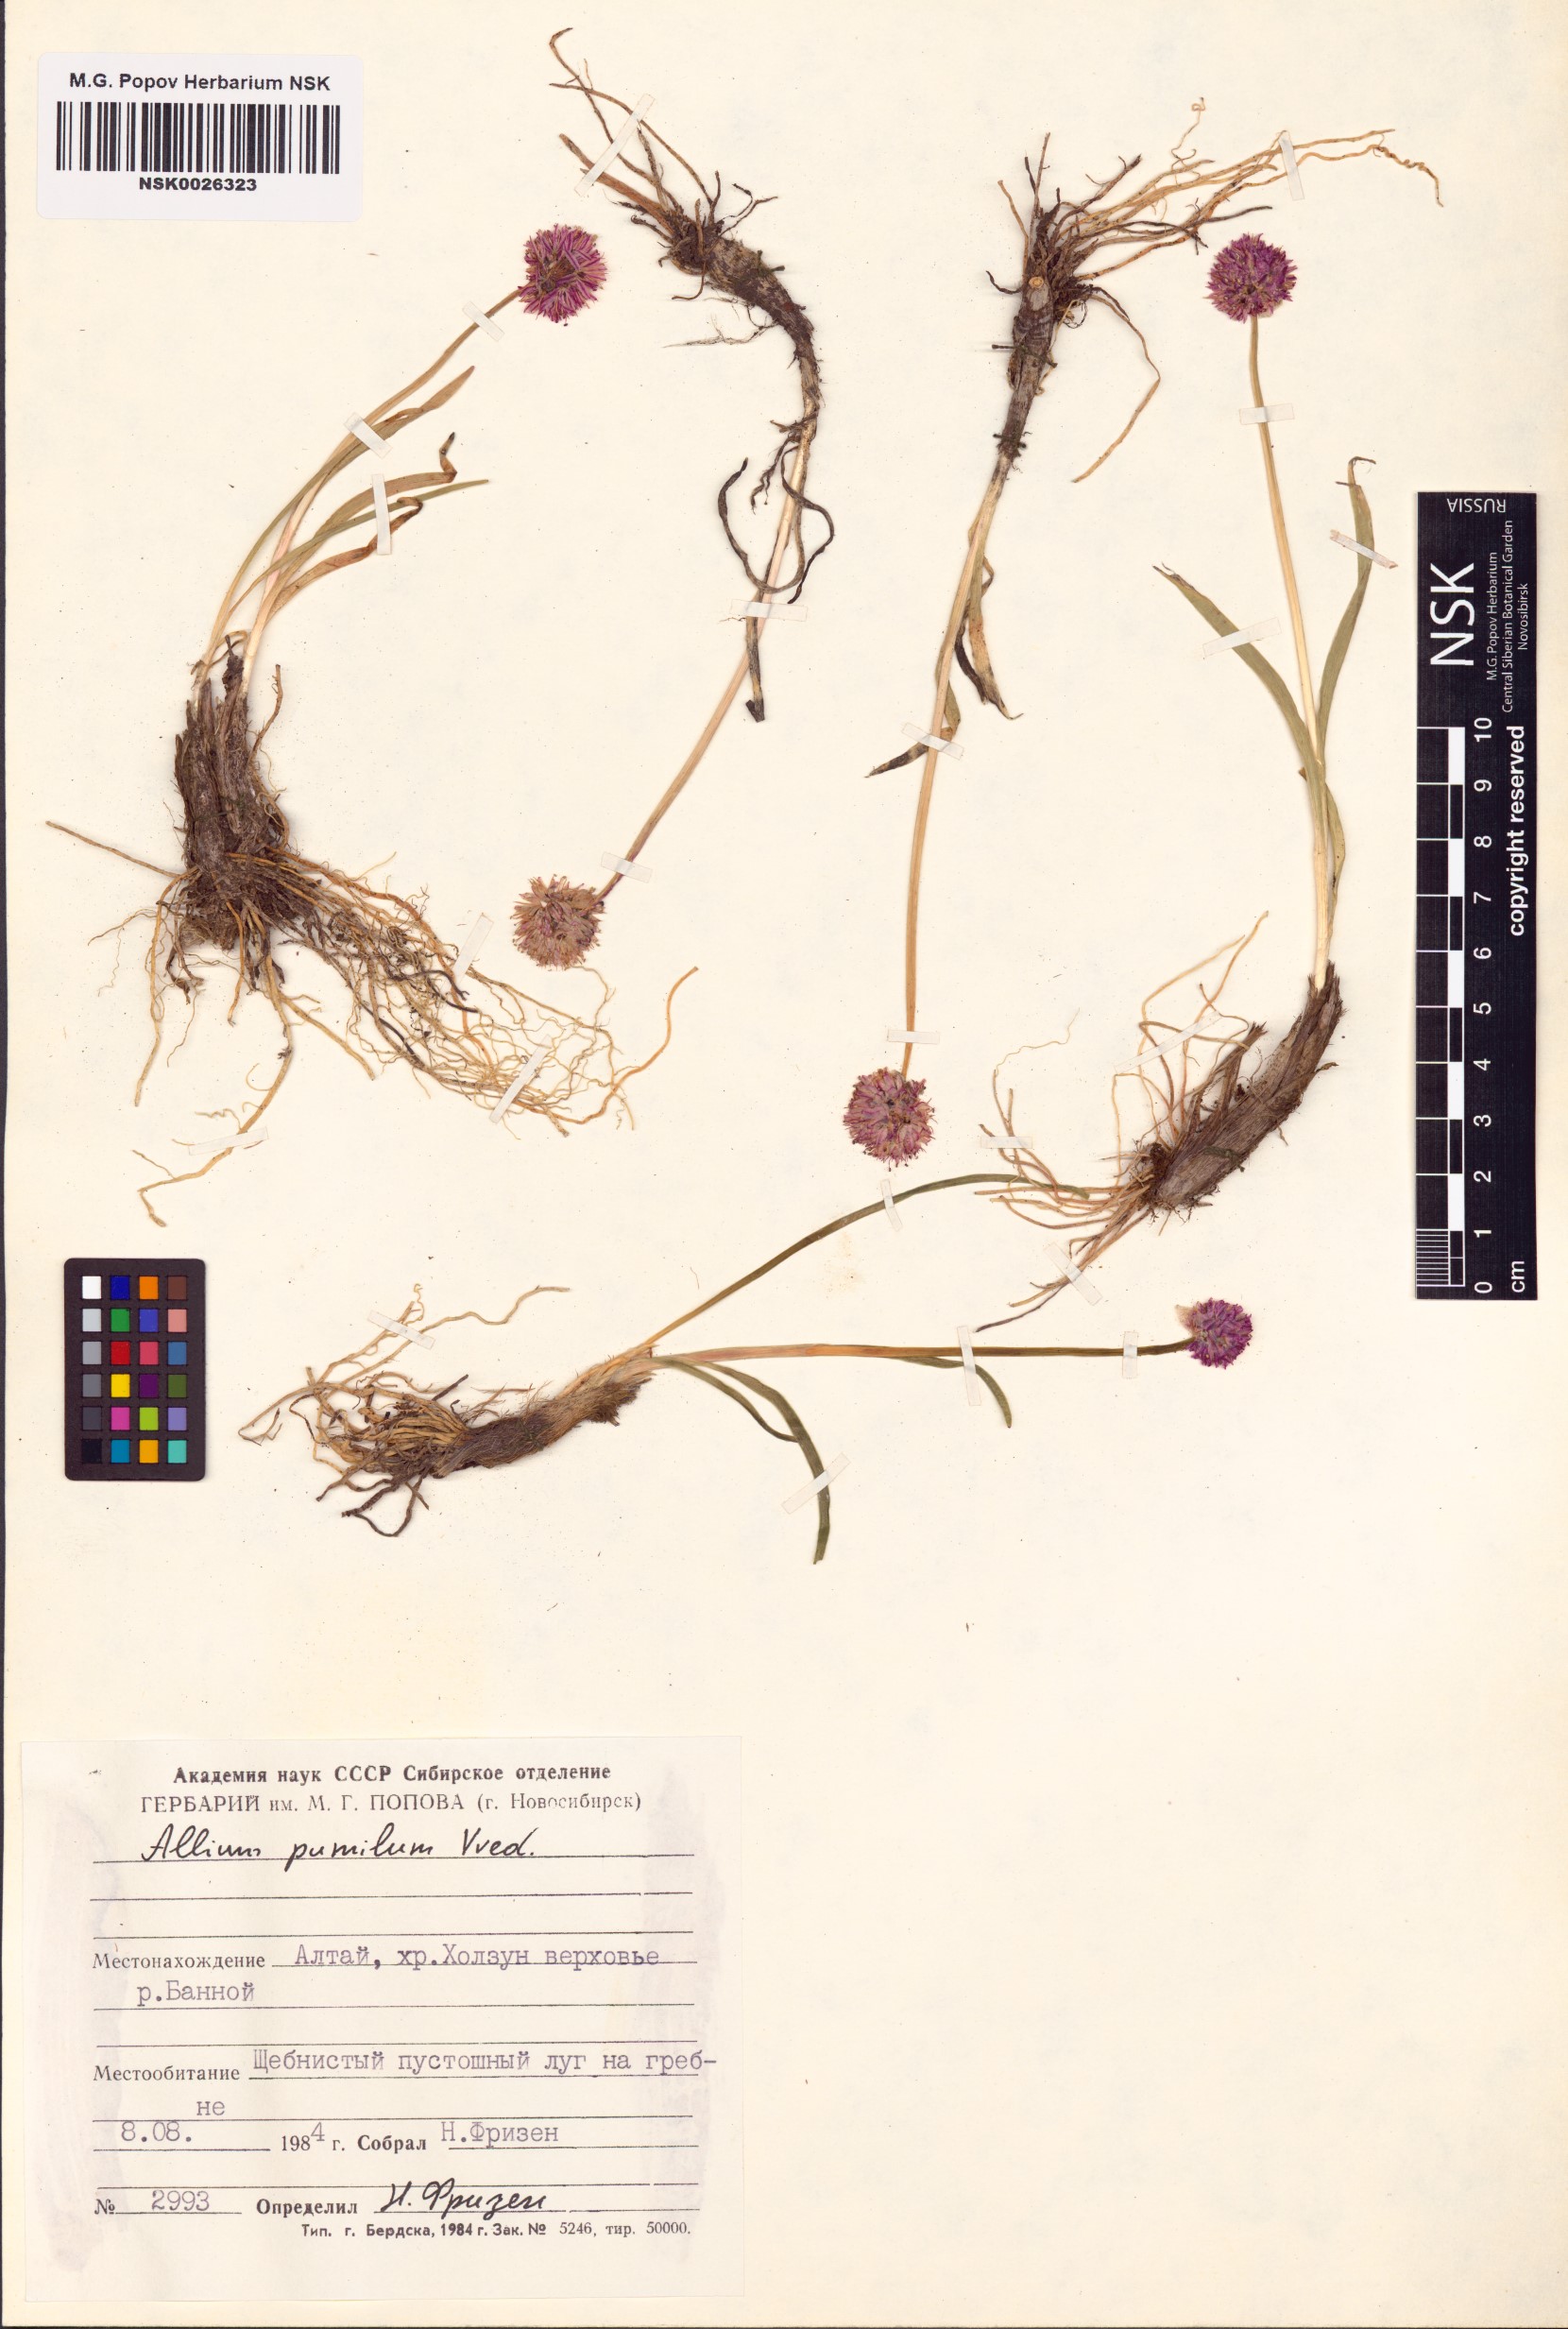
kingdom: Plantae
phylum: Tracheophyta
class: Liliopsida
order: Asparagales
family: Amaryllidaceae
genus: Allium
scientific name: Allium pumilum
